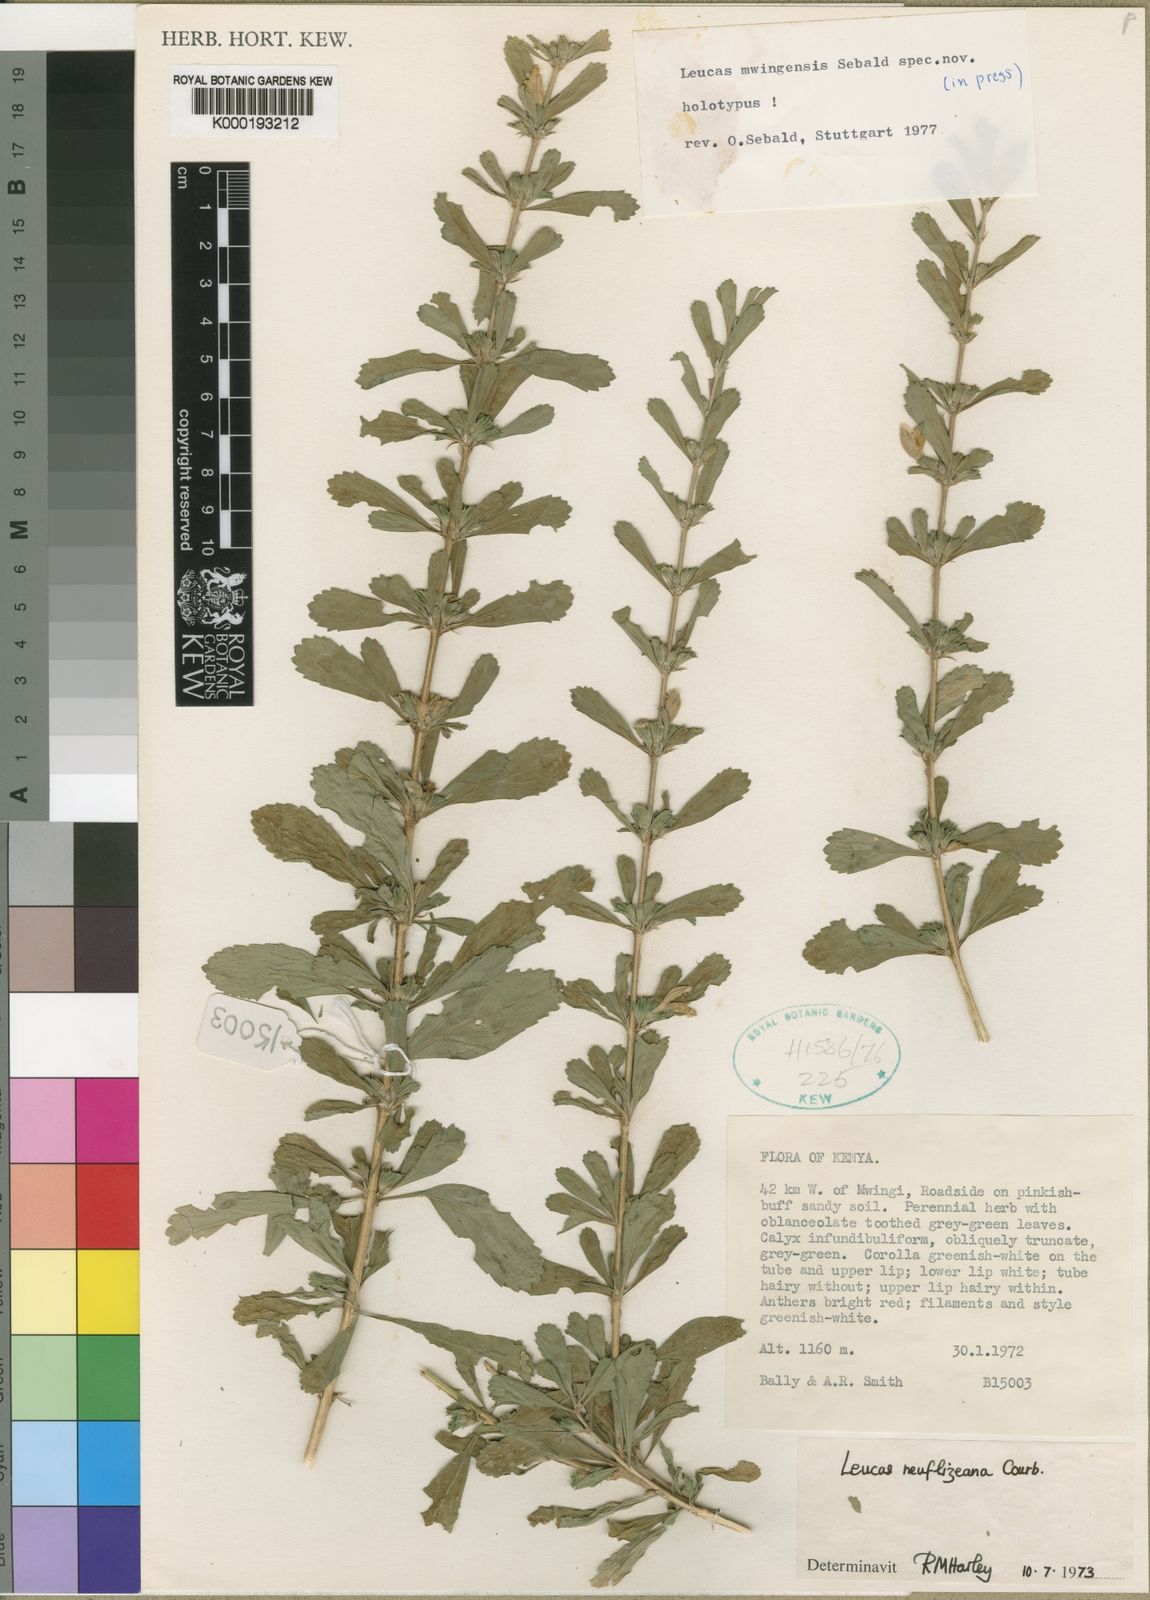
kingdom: Plantae
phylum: Tracheophyta
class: Magnoliopsida
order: Lamiales
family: Lamiaceae
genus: Leucas
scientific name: Leucas mwingensis
